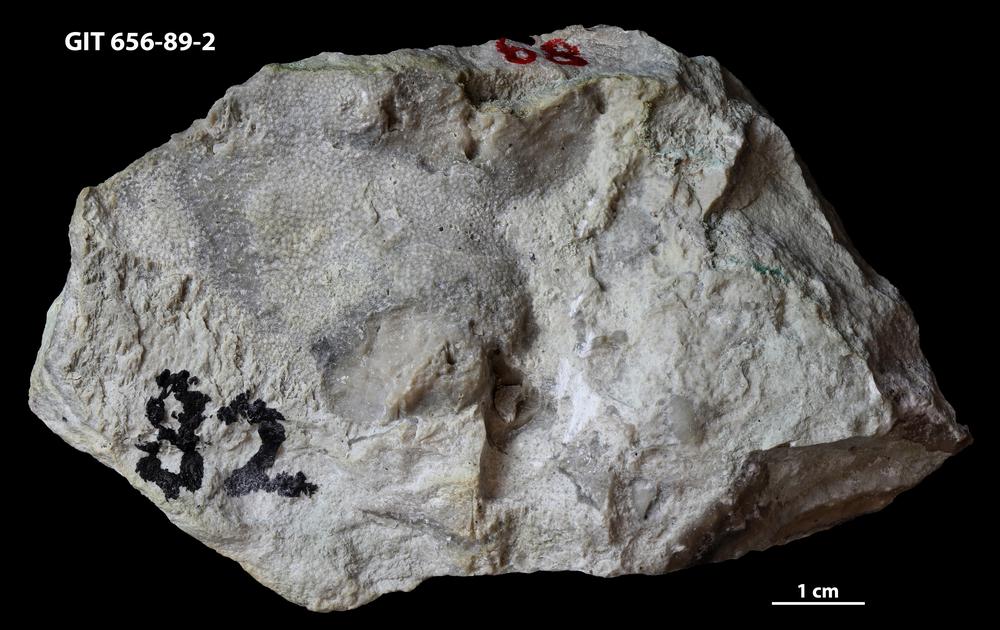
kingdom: Animalia
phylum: Cnidaria
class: Anthozoa
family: Theciidae
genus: Thecia
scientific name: Thecia
